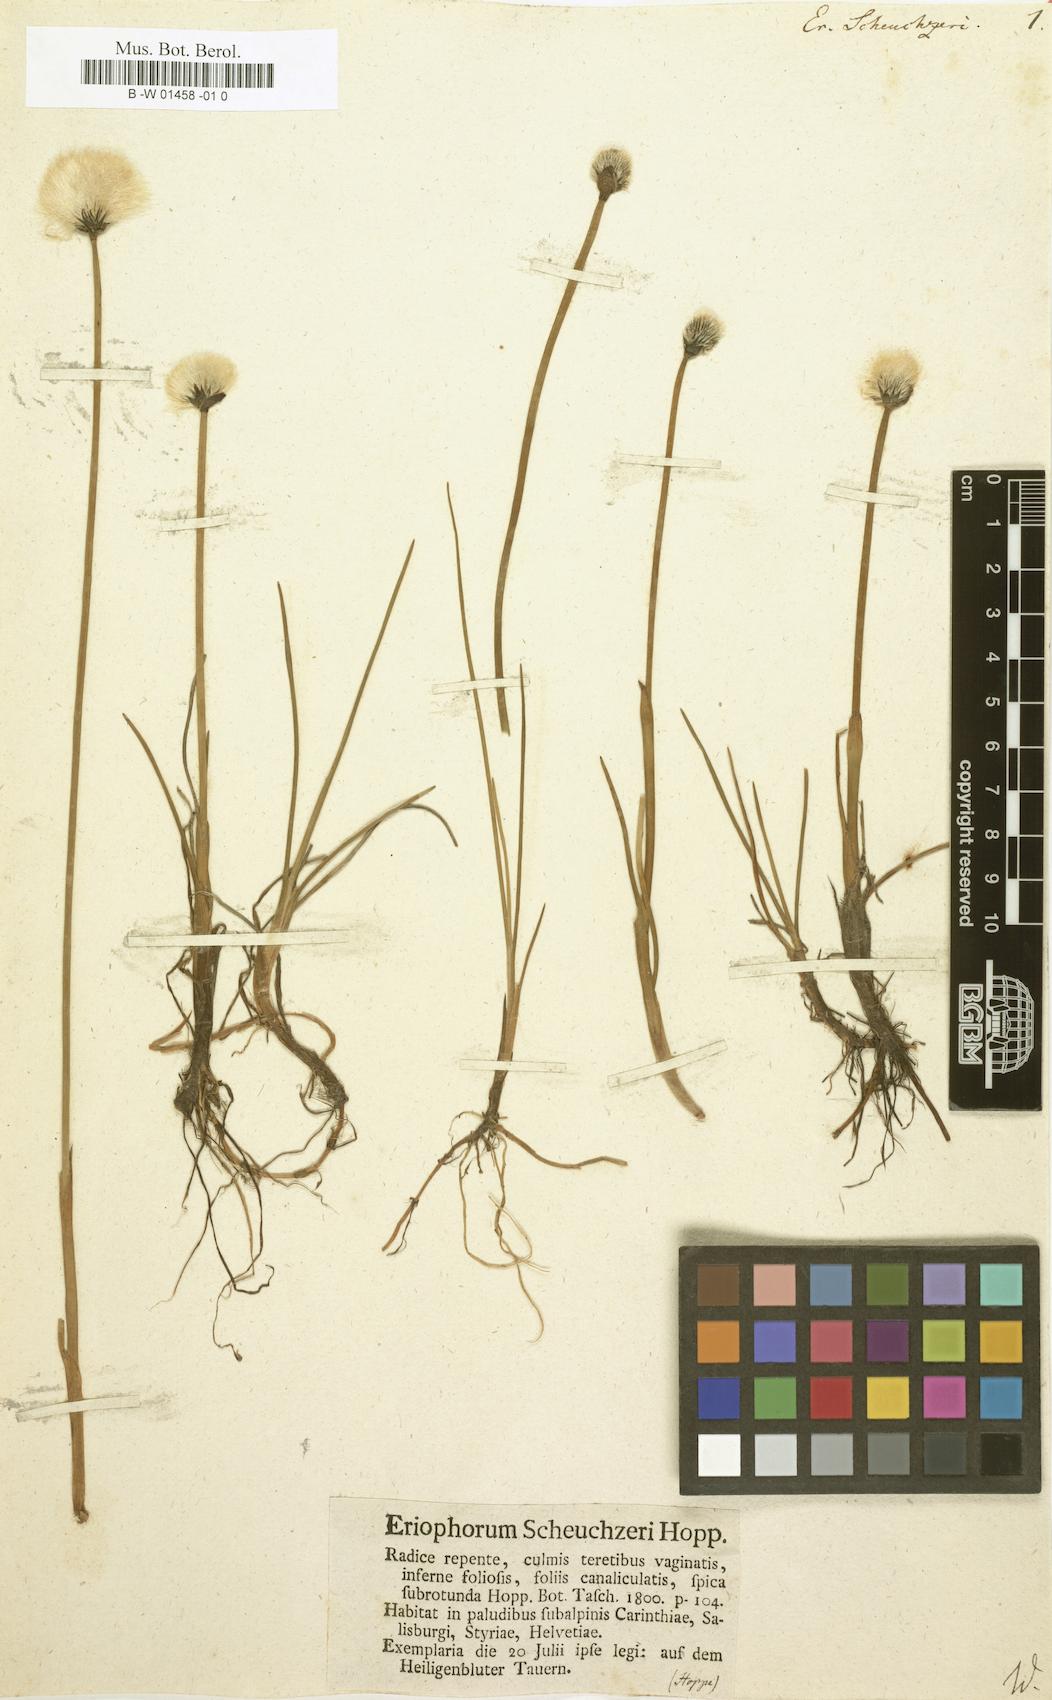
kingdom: Plantae
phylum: Tracheophyta
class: Liliopsida
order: Poales
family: Cyperaceae
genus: Eriophorum
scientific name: Eriophorum scheuchzeri
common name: Scheuchzer's cottongrass
